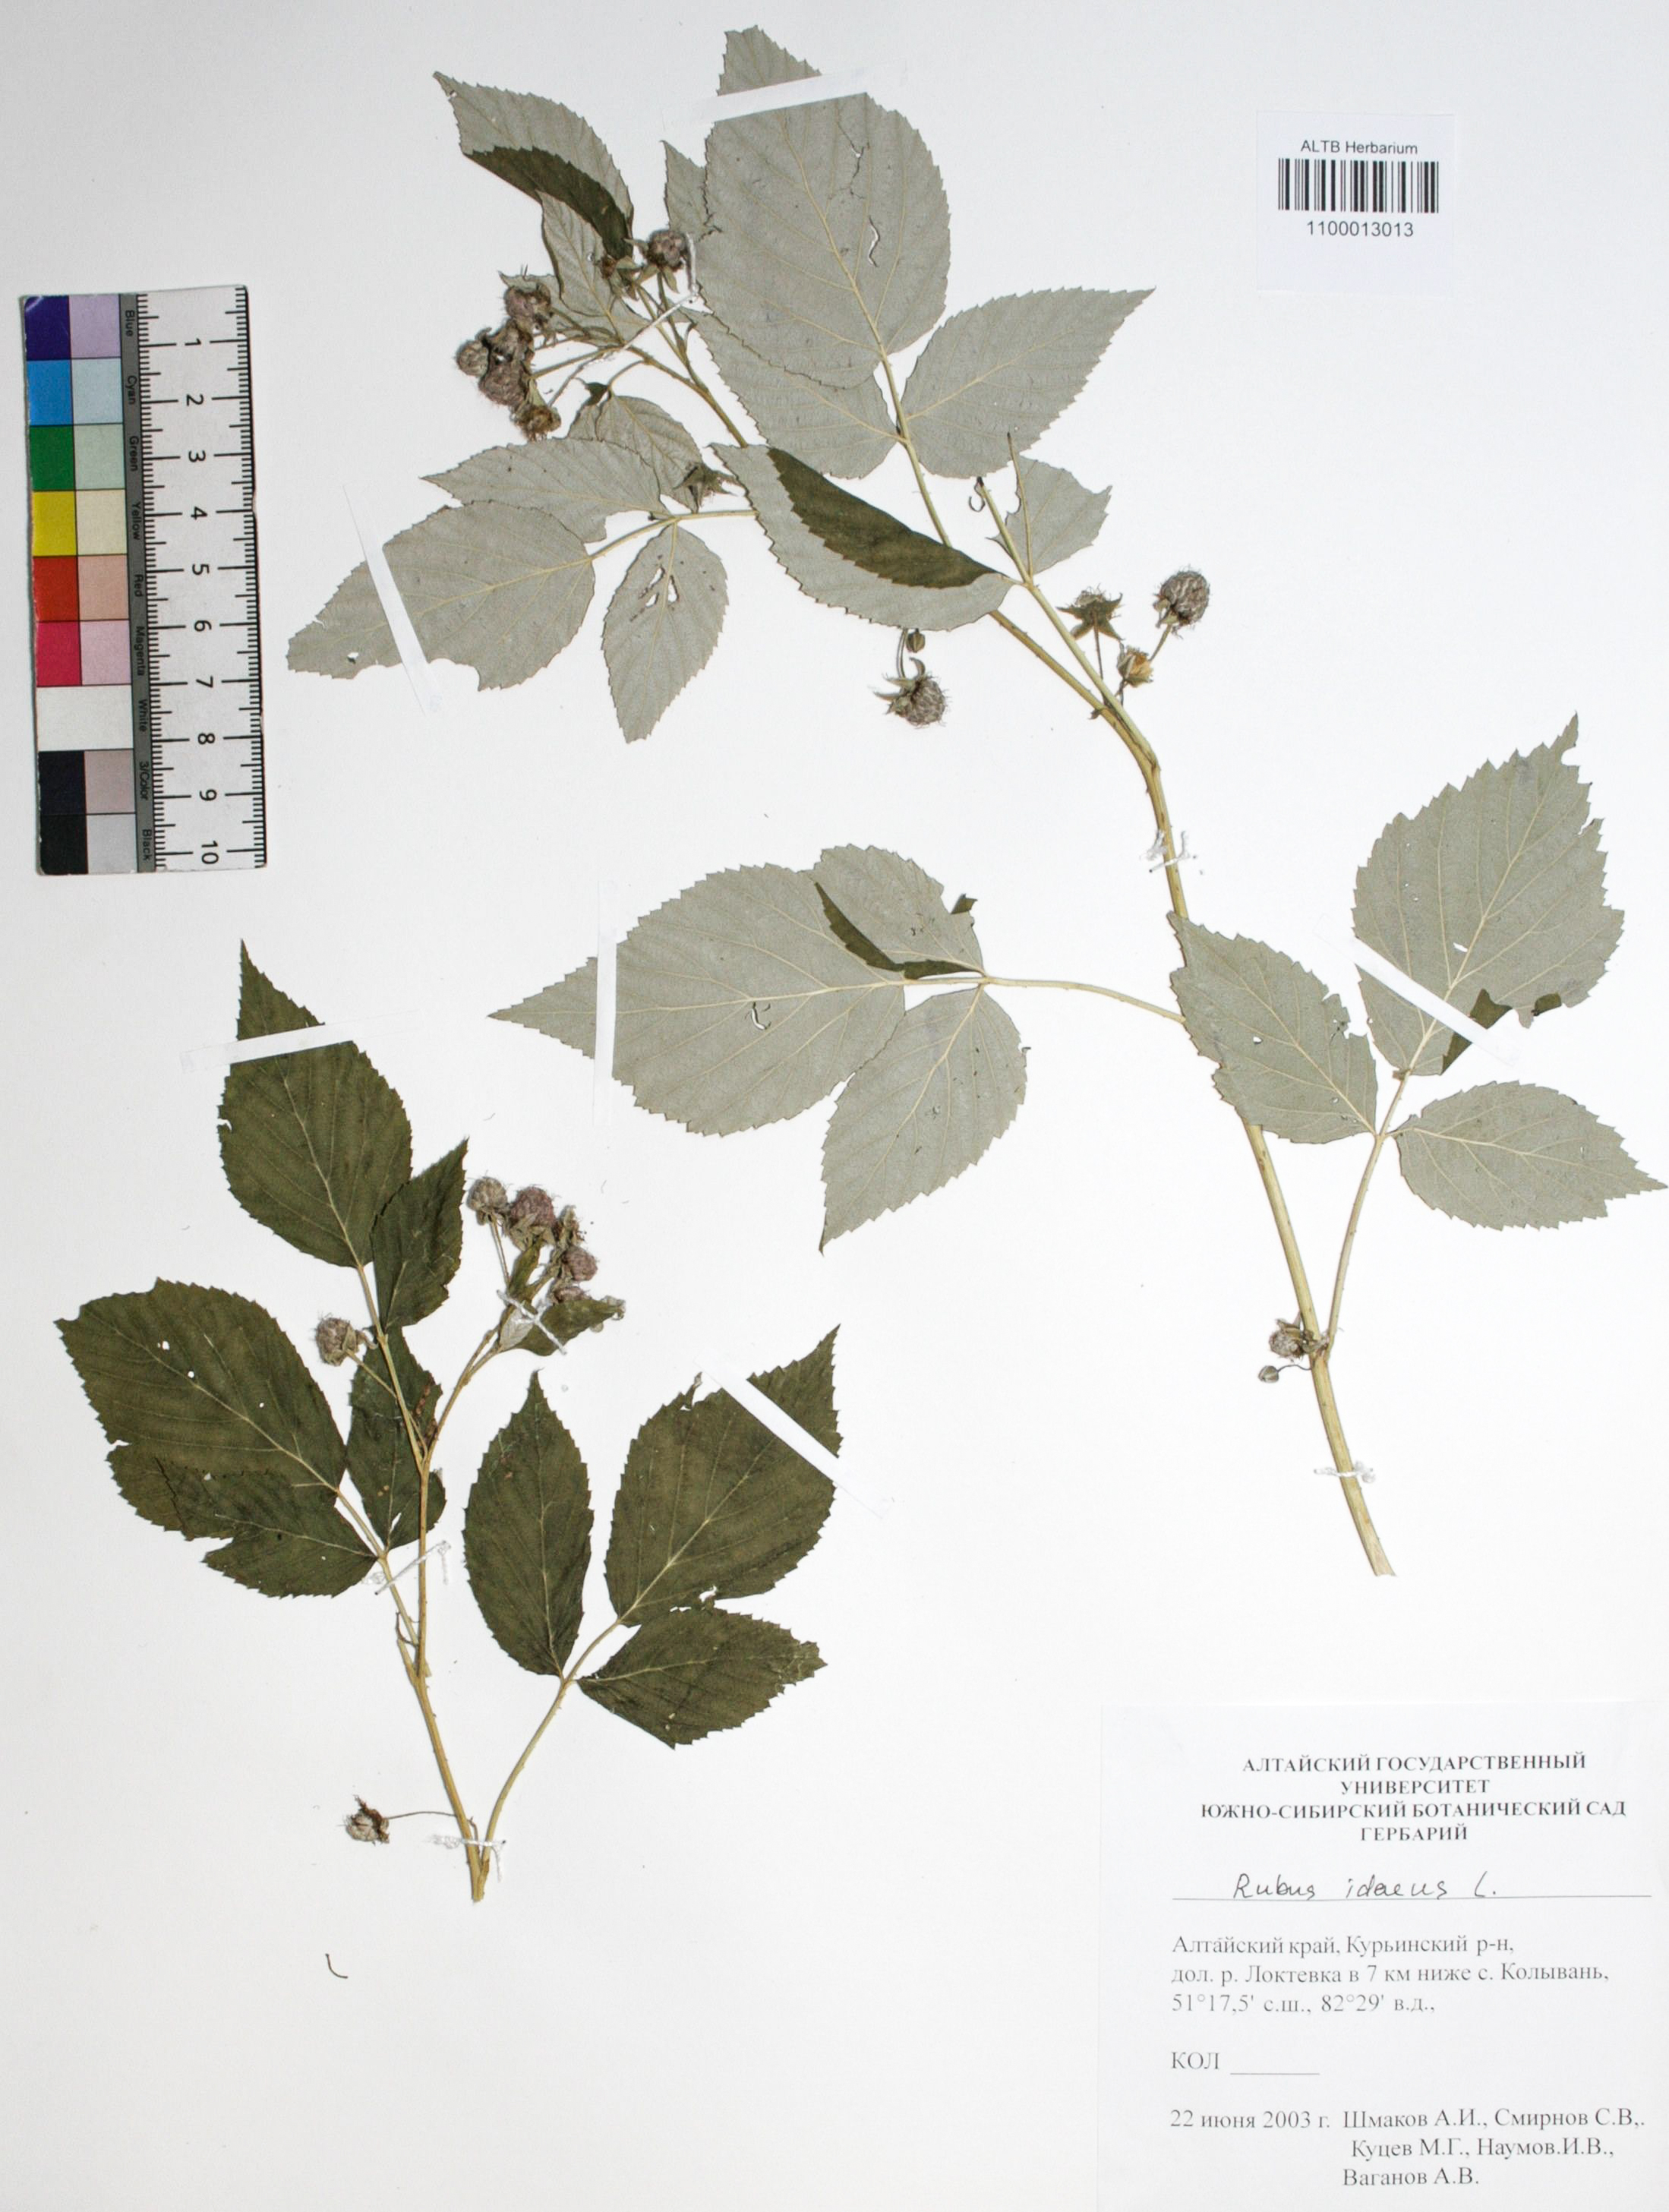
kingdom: Plantae
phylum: Tracheophyta
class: Magnoliopsida
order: Rosales
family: Rosaceae
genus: Rubus
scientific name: Rubus idaeus
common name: Raspberry
